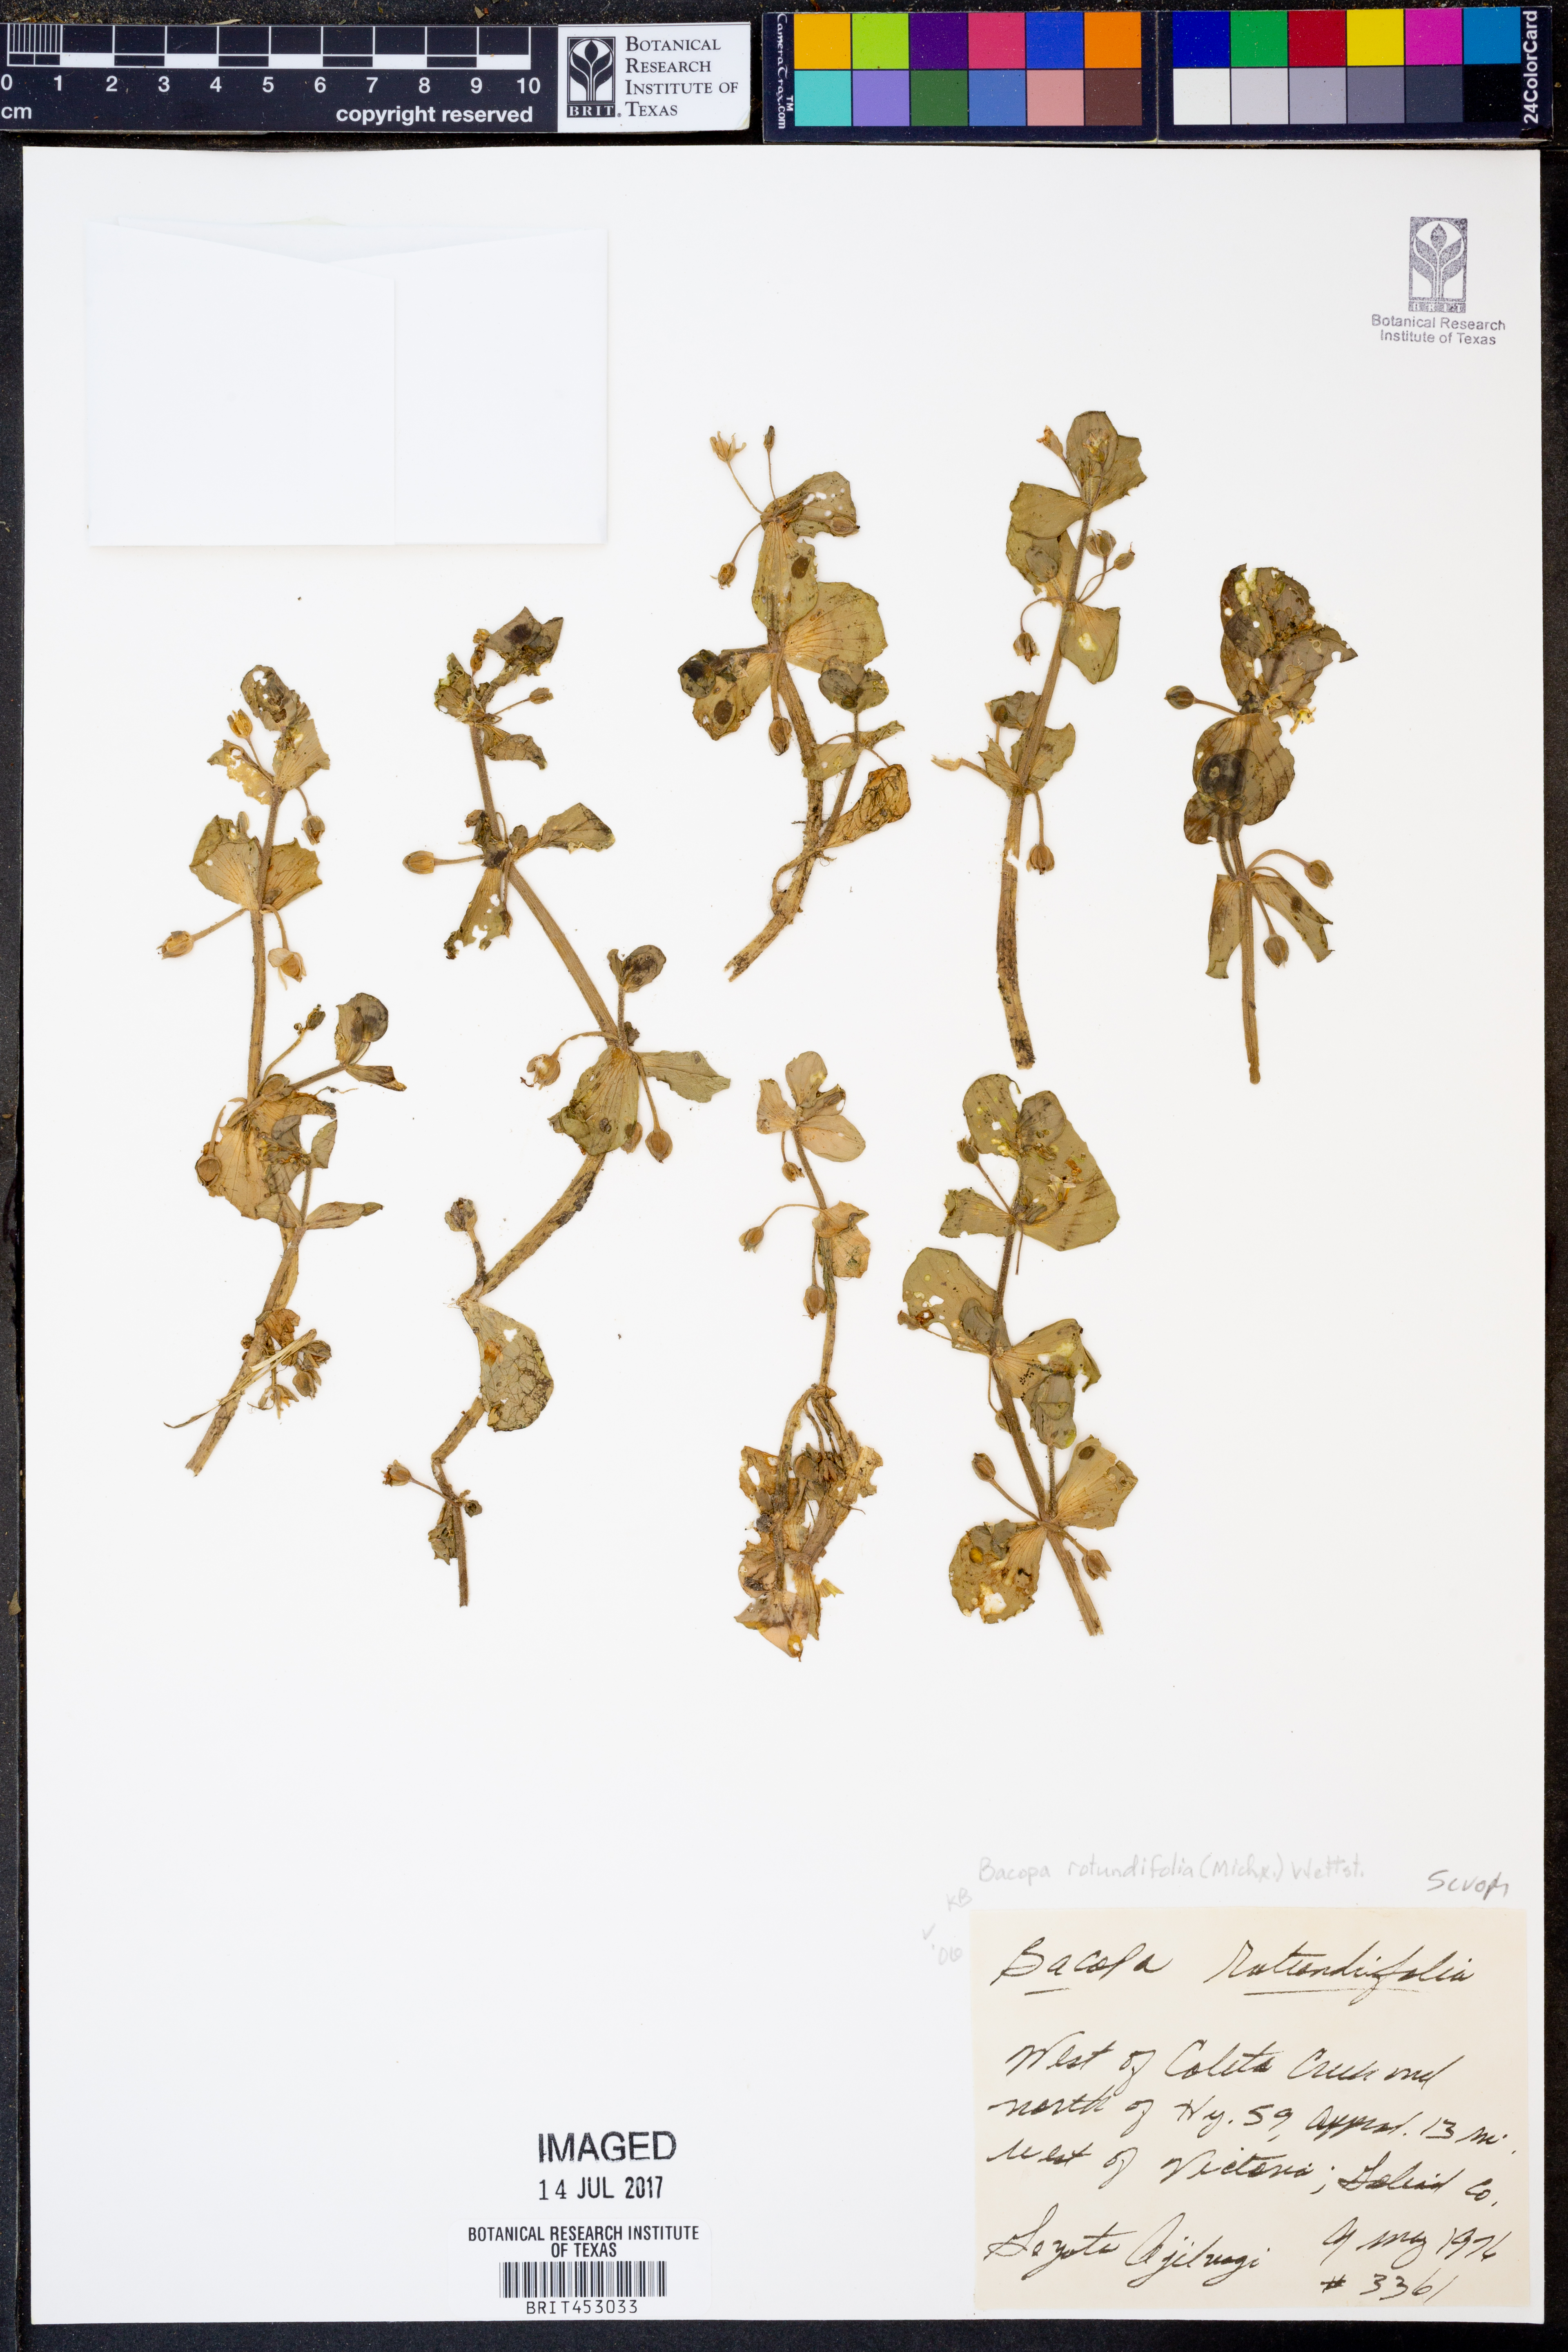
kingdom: Plantae
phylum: Tracheophyta
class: Magnoliopsida
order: Lamiales
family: Plantaginaceae
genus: Bacopa
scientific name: Bacopa rotundifolia
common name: Disc water hyssop
